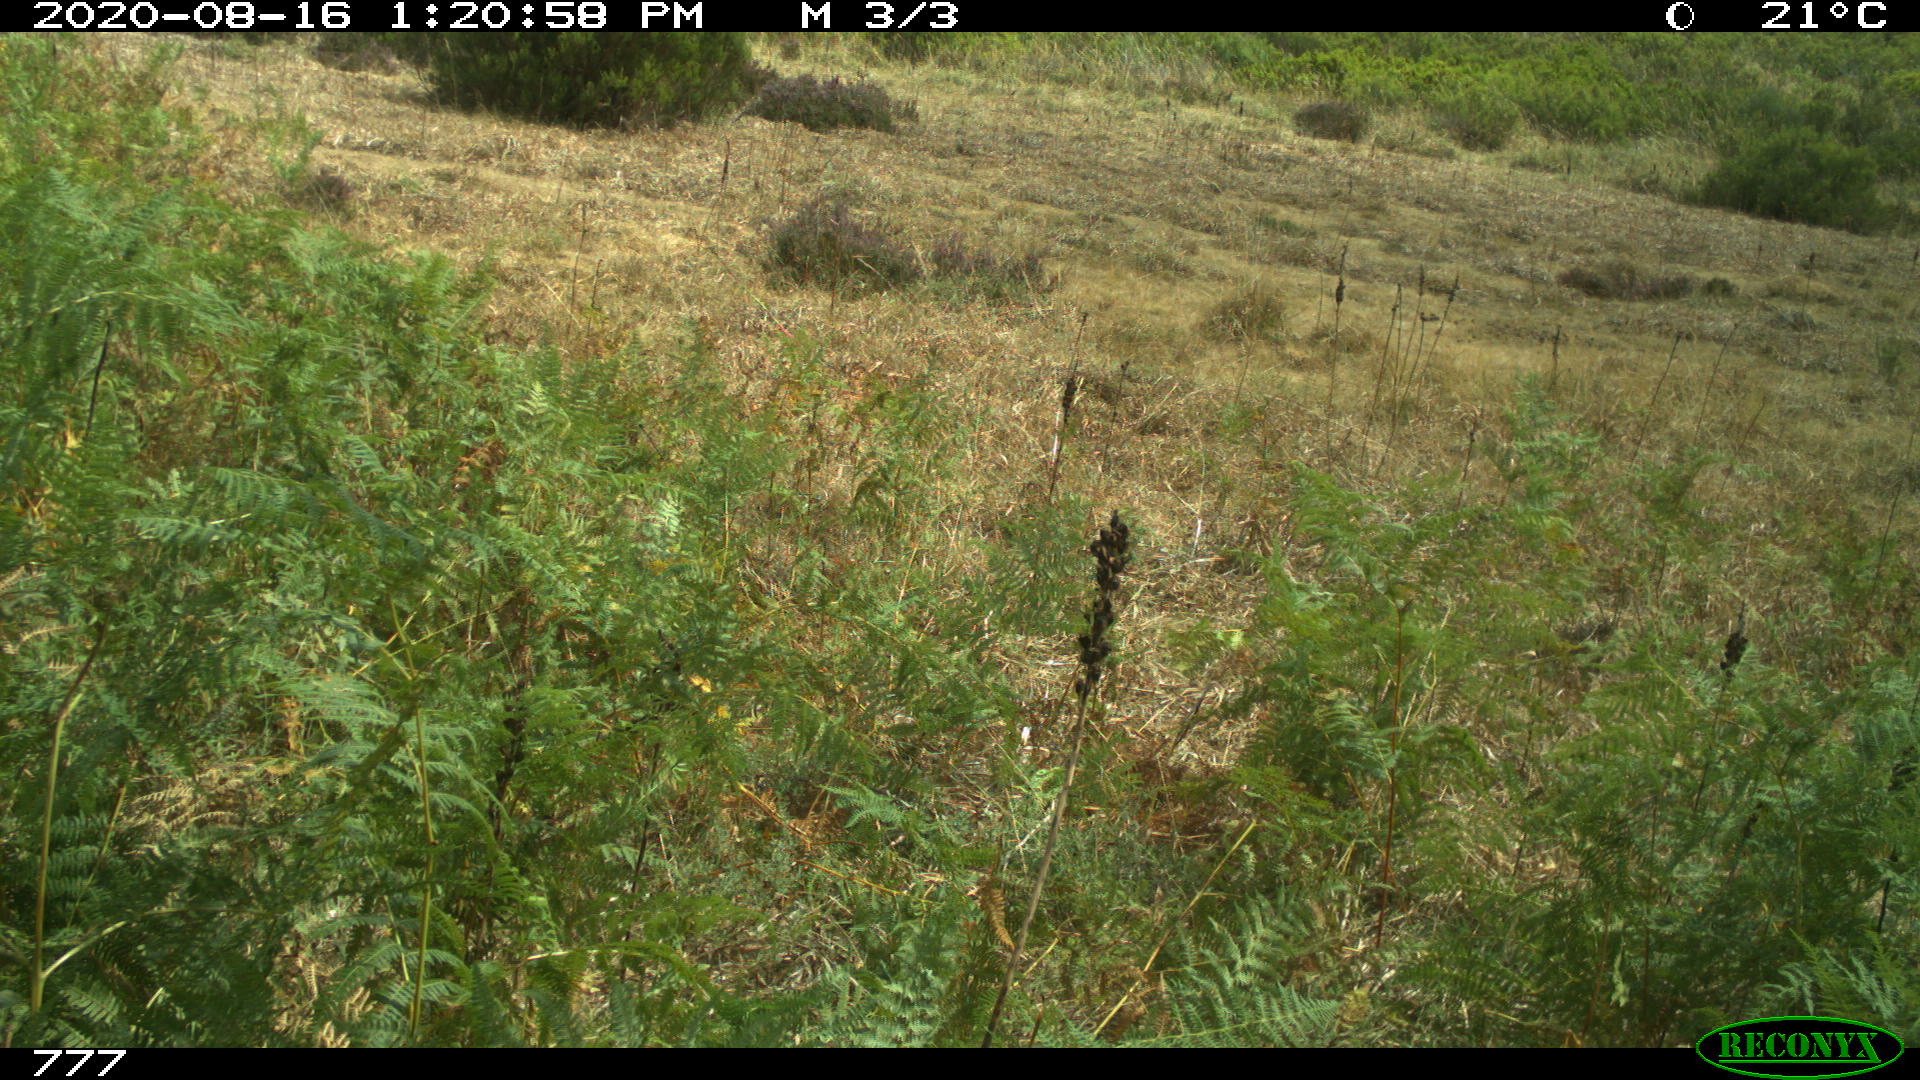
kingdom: Animalia
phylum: Chordata
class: Mammalia
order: Perissodactyla
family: Equidae
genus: Equus
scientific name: Equus caballus
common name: Horse
